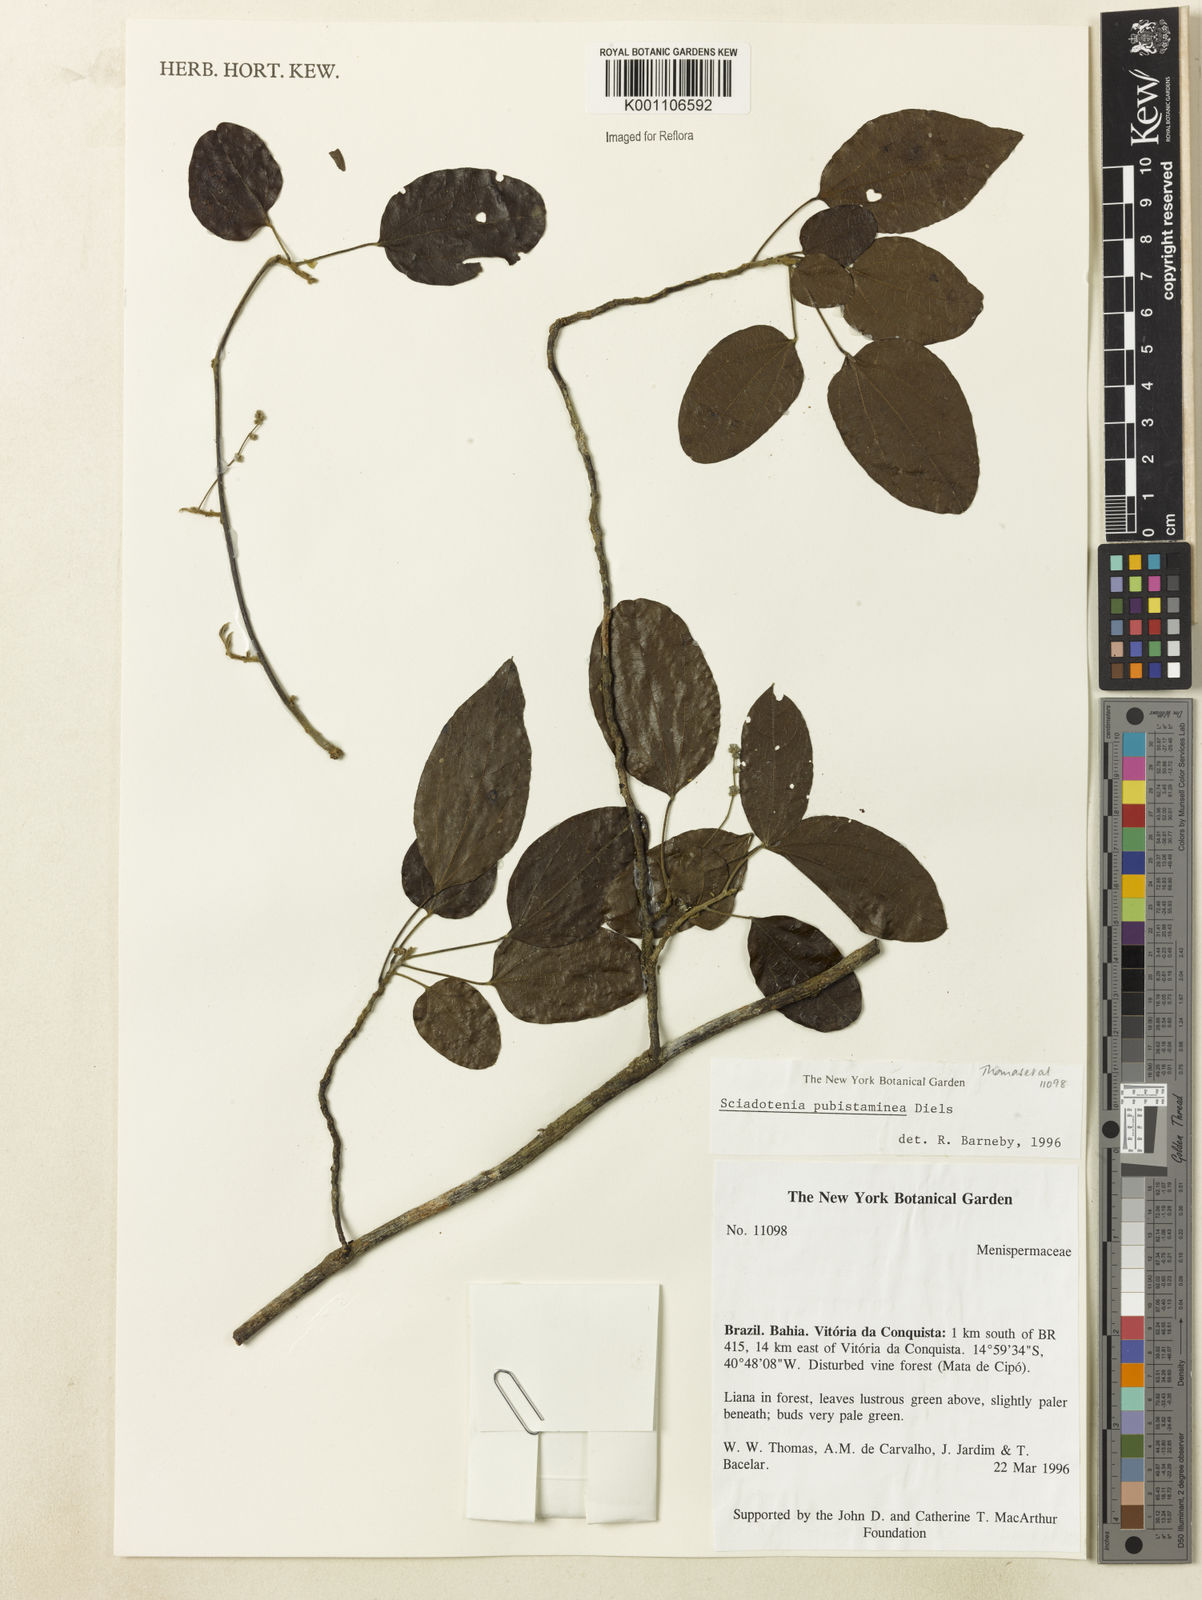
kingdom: Plantae
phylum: Tracheophyta
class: Magnoliopsida
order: Ranunculales
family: Menispermaceae
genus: Sciadotenia
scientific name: Sciadotenia pubistaminea
